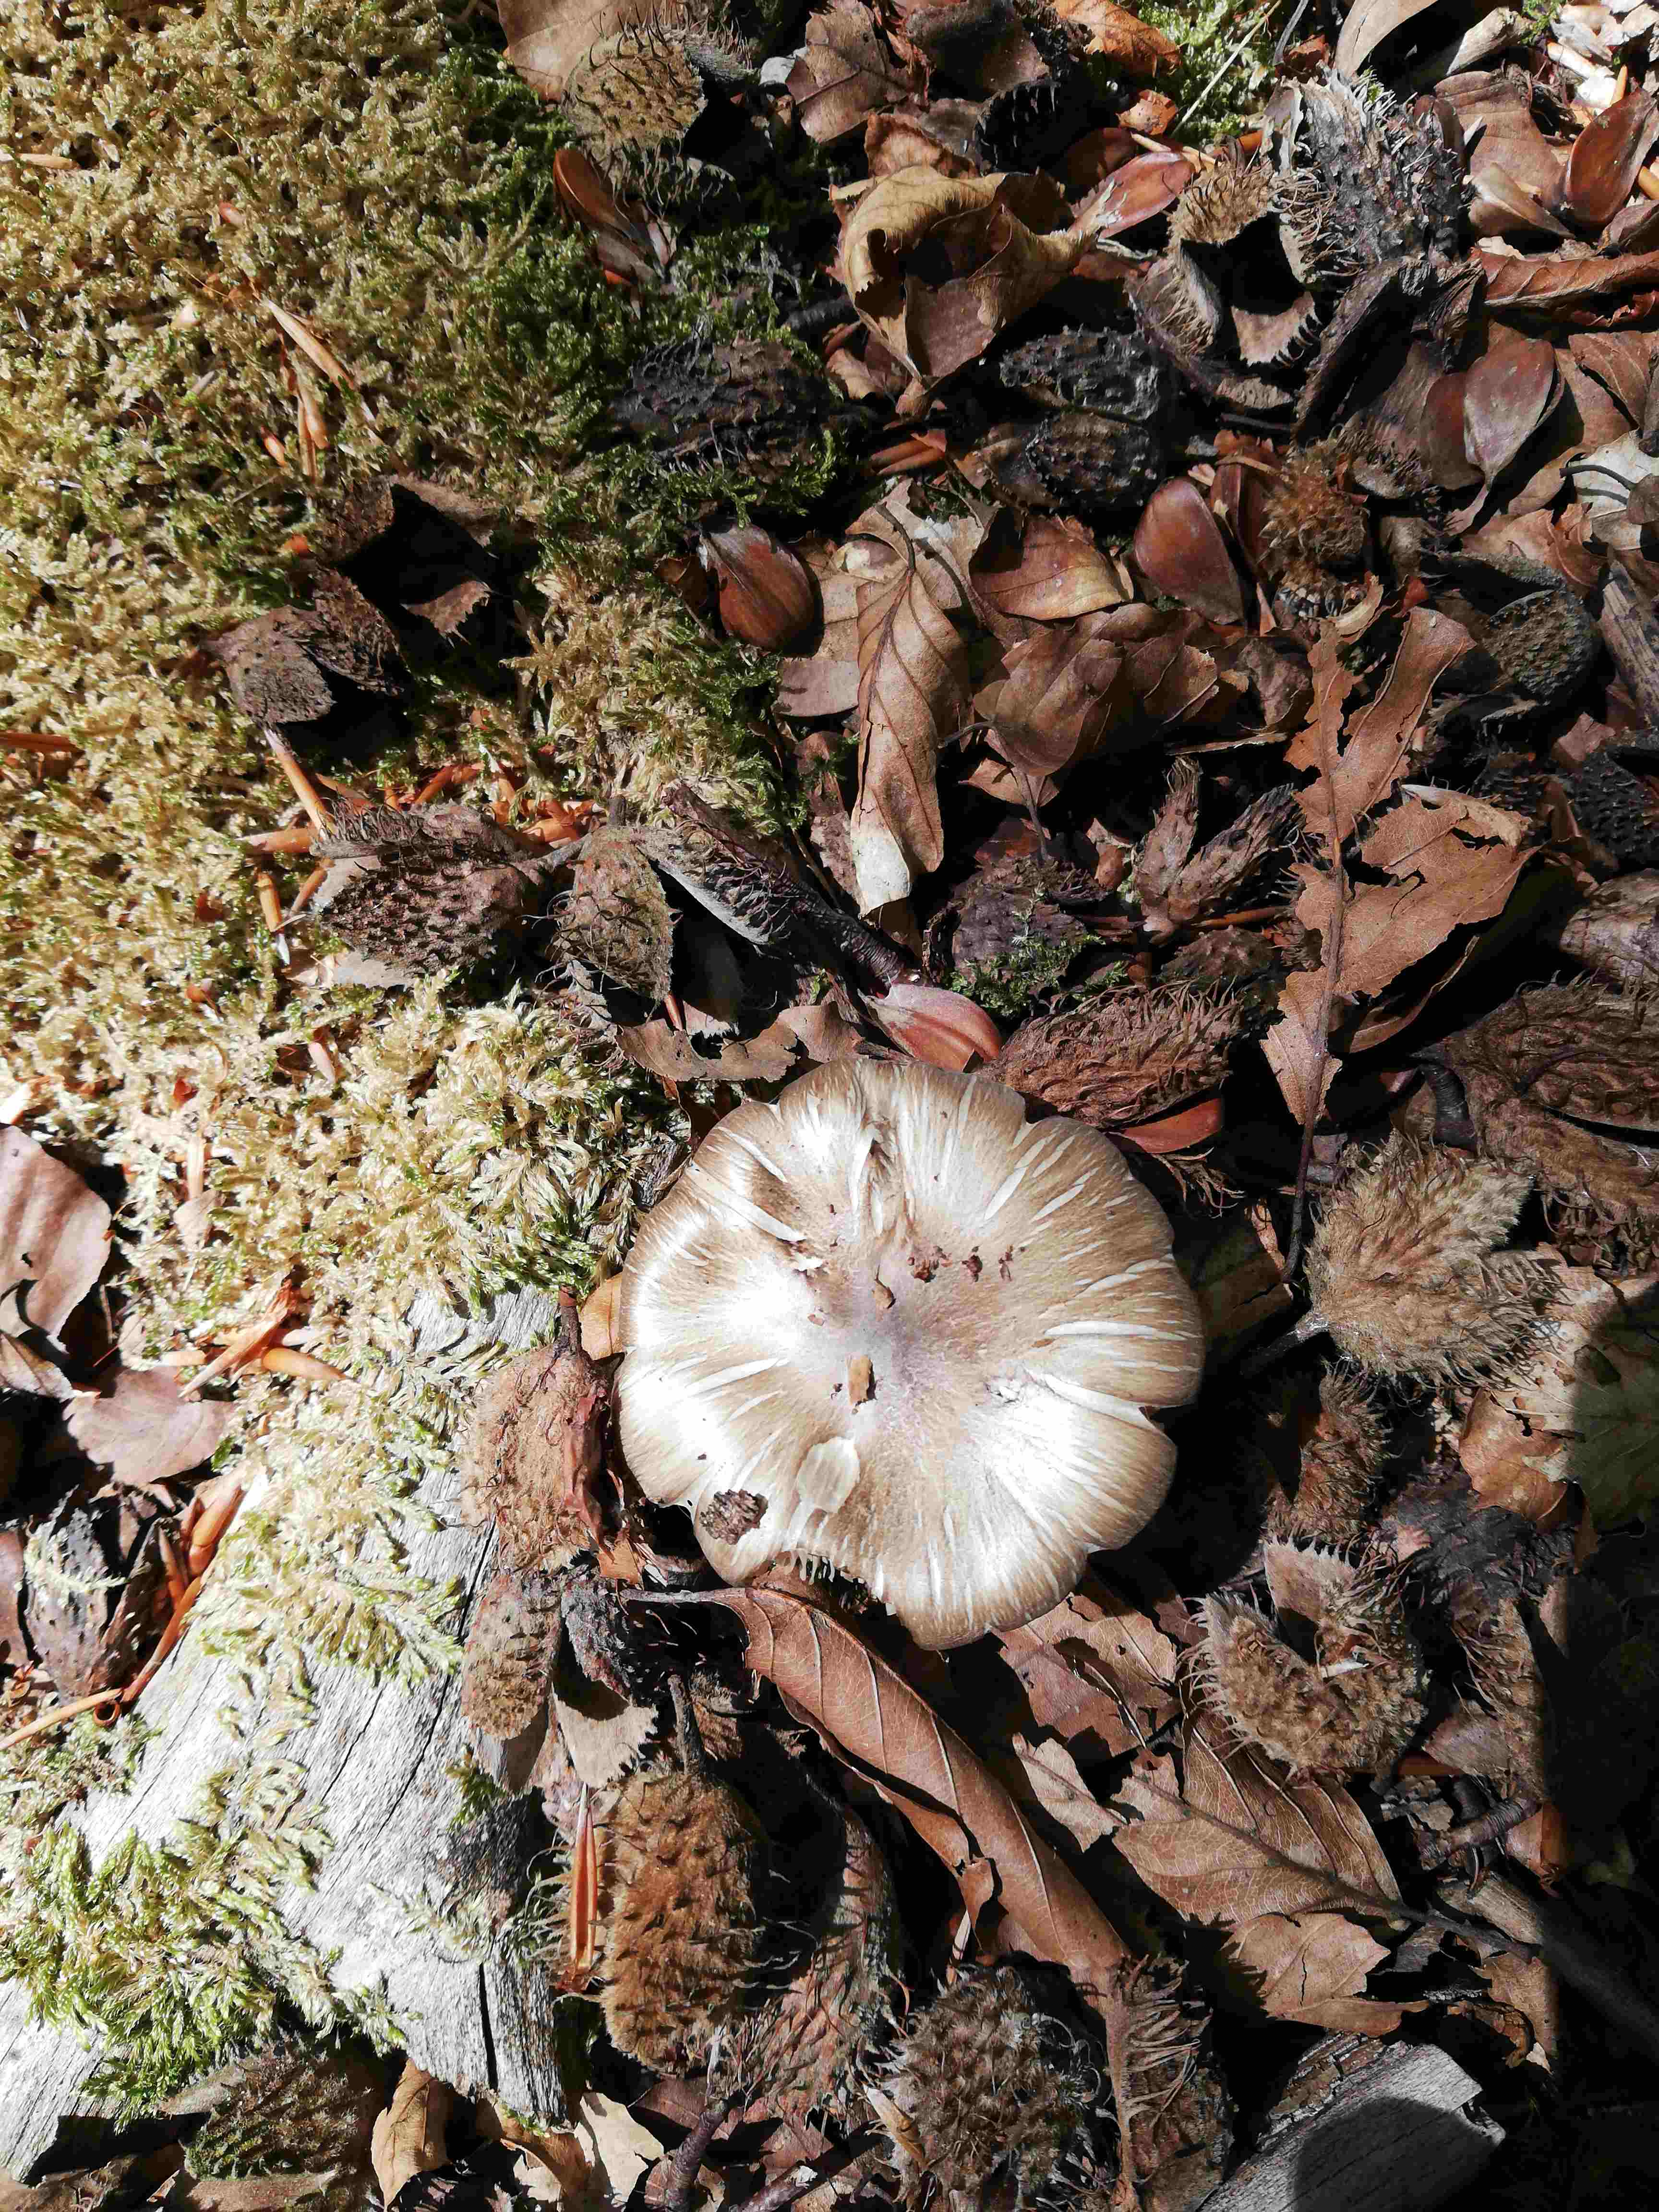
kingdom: Fungi
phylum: Basidiomycota
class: Agaricomycetes
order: Agaricales
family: Tricholomataceae
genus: Megacollybia
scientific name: Megacollybia platyphylla
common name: bredbladet væbnerhat
